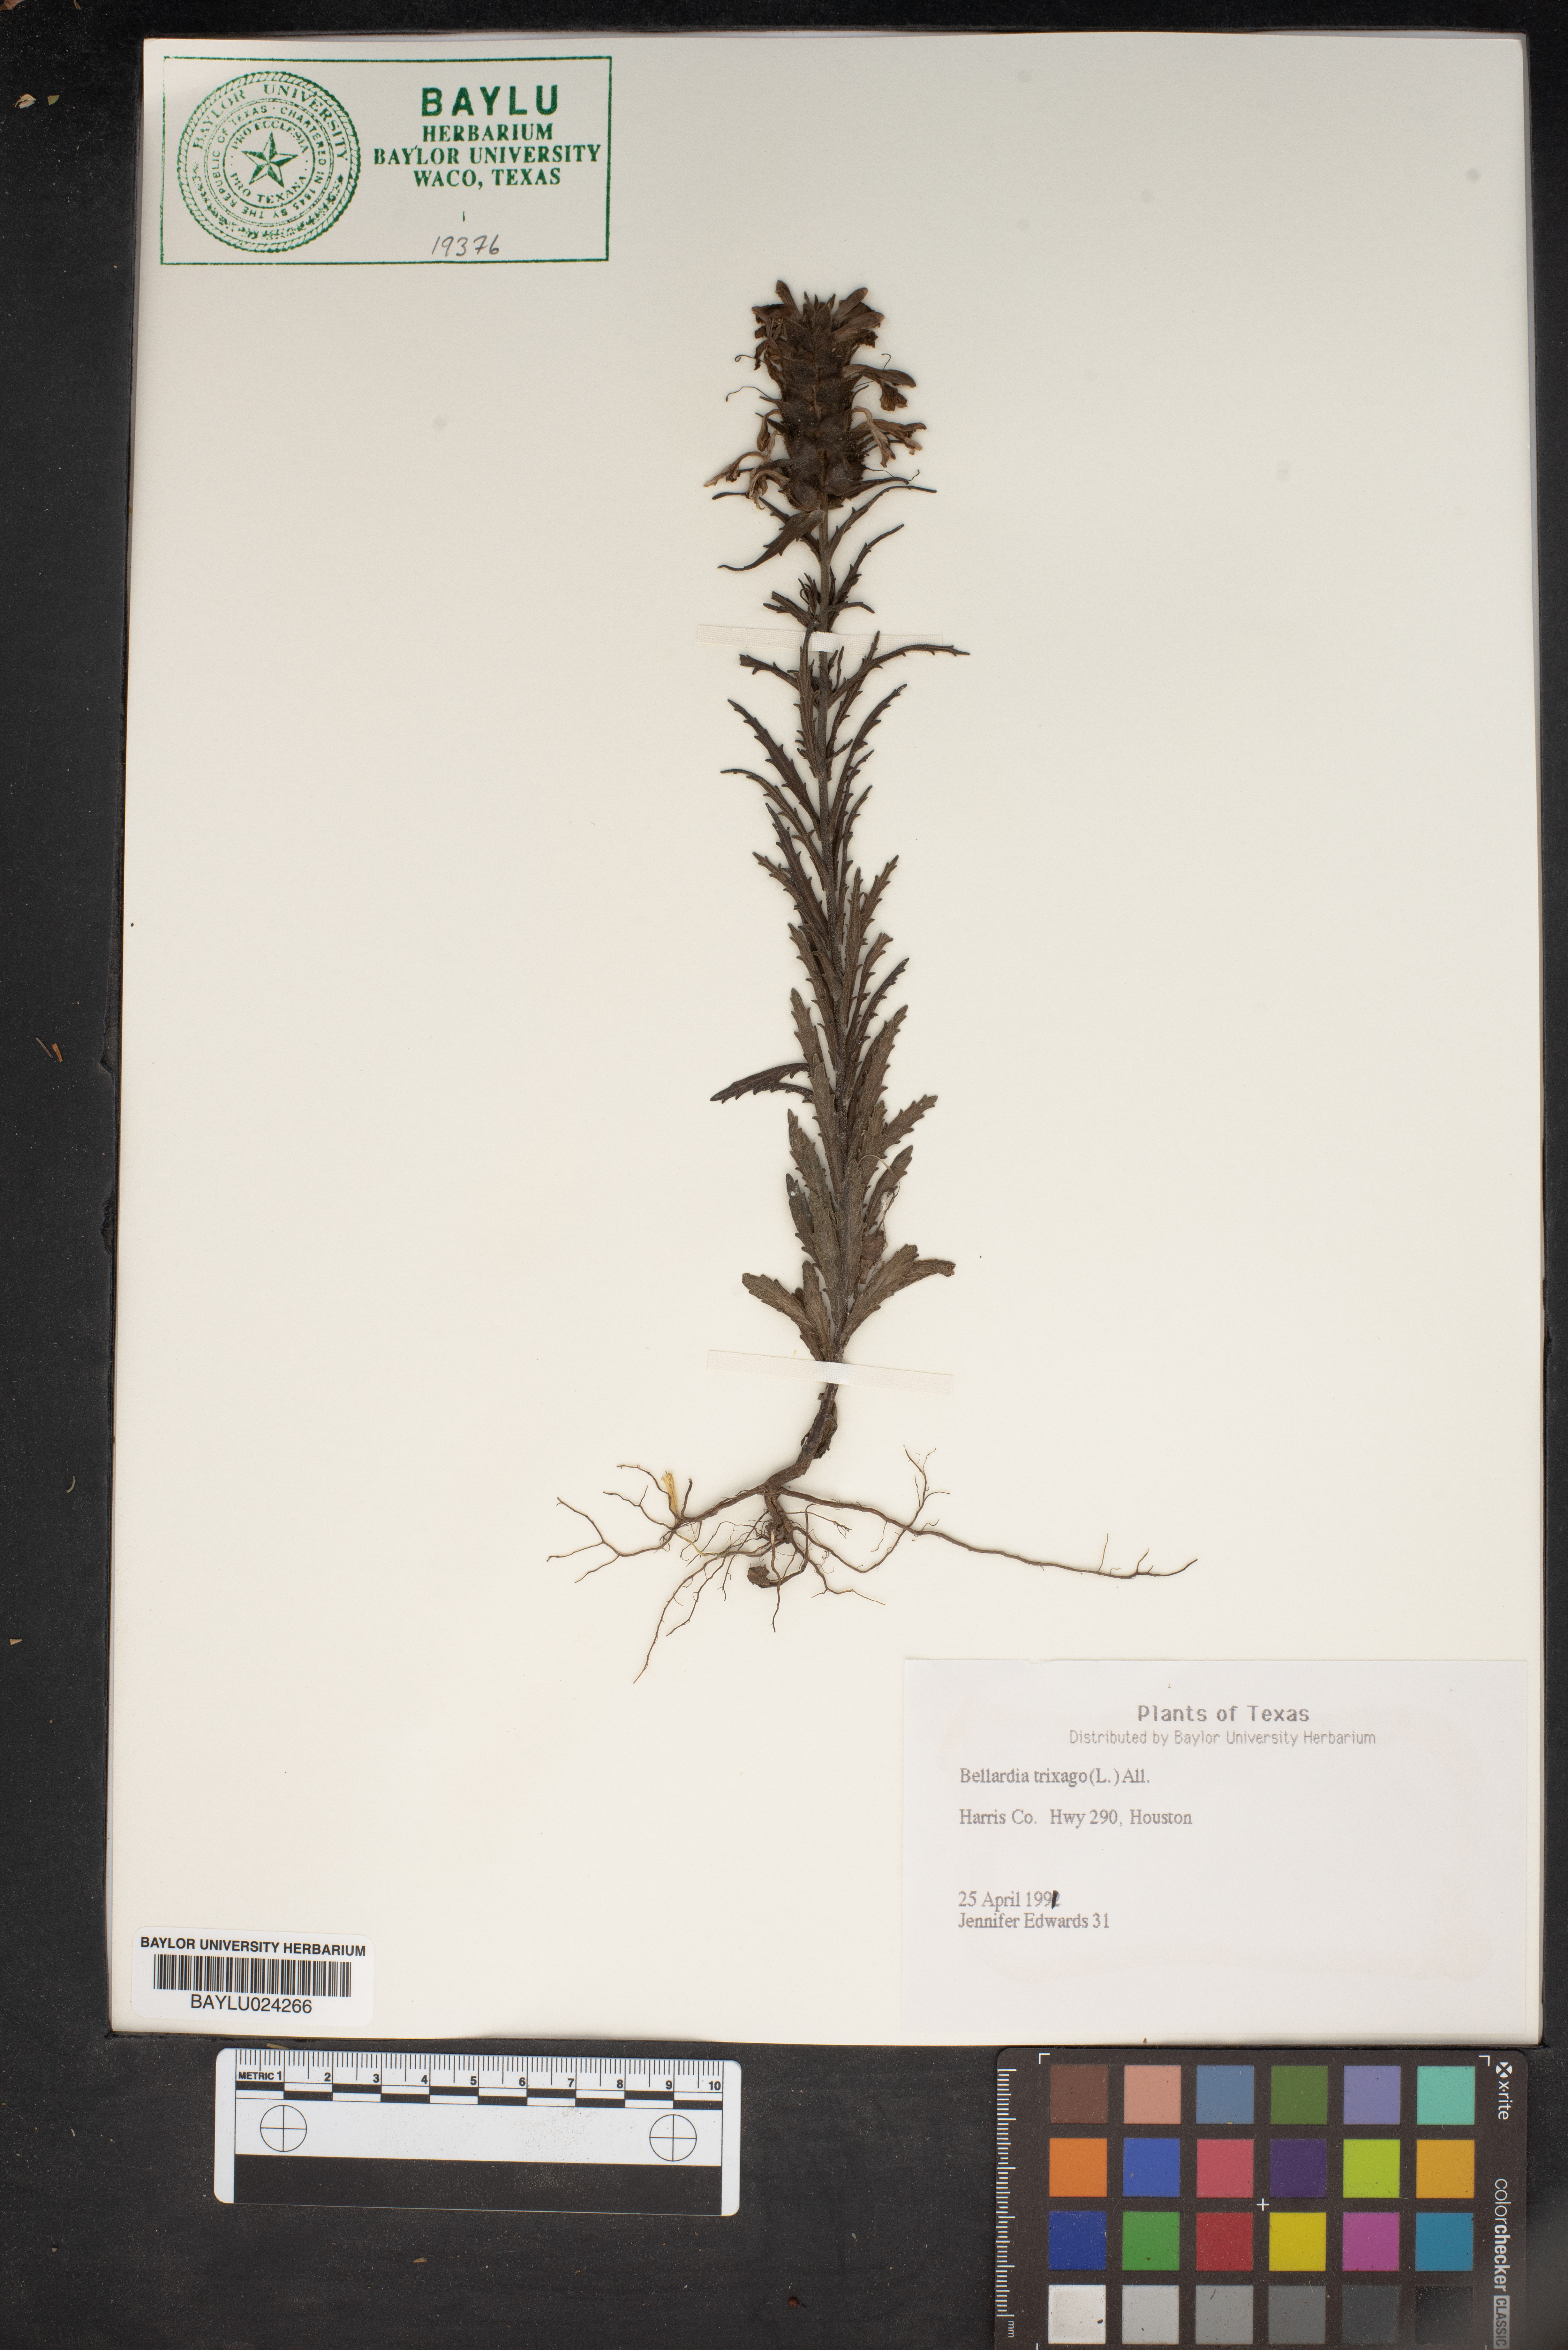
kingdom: Plantae
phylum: Tracheophyta
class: Magnoliopsida
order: Lamiales
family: Orobanchaceae
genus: Bellardia
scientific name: Bellardia trixago
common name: Mediterranean lineseed
